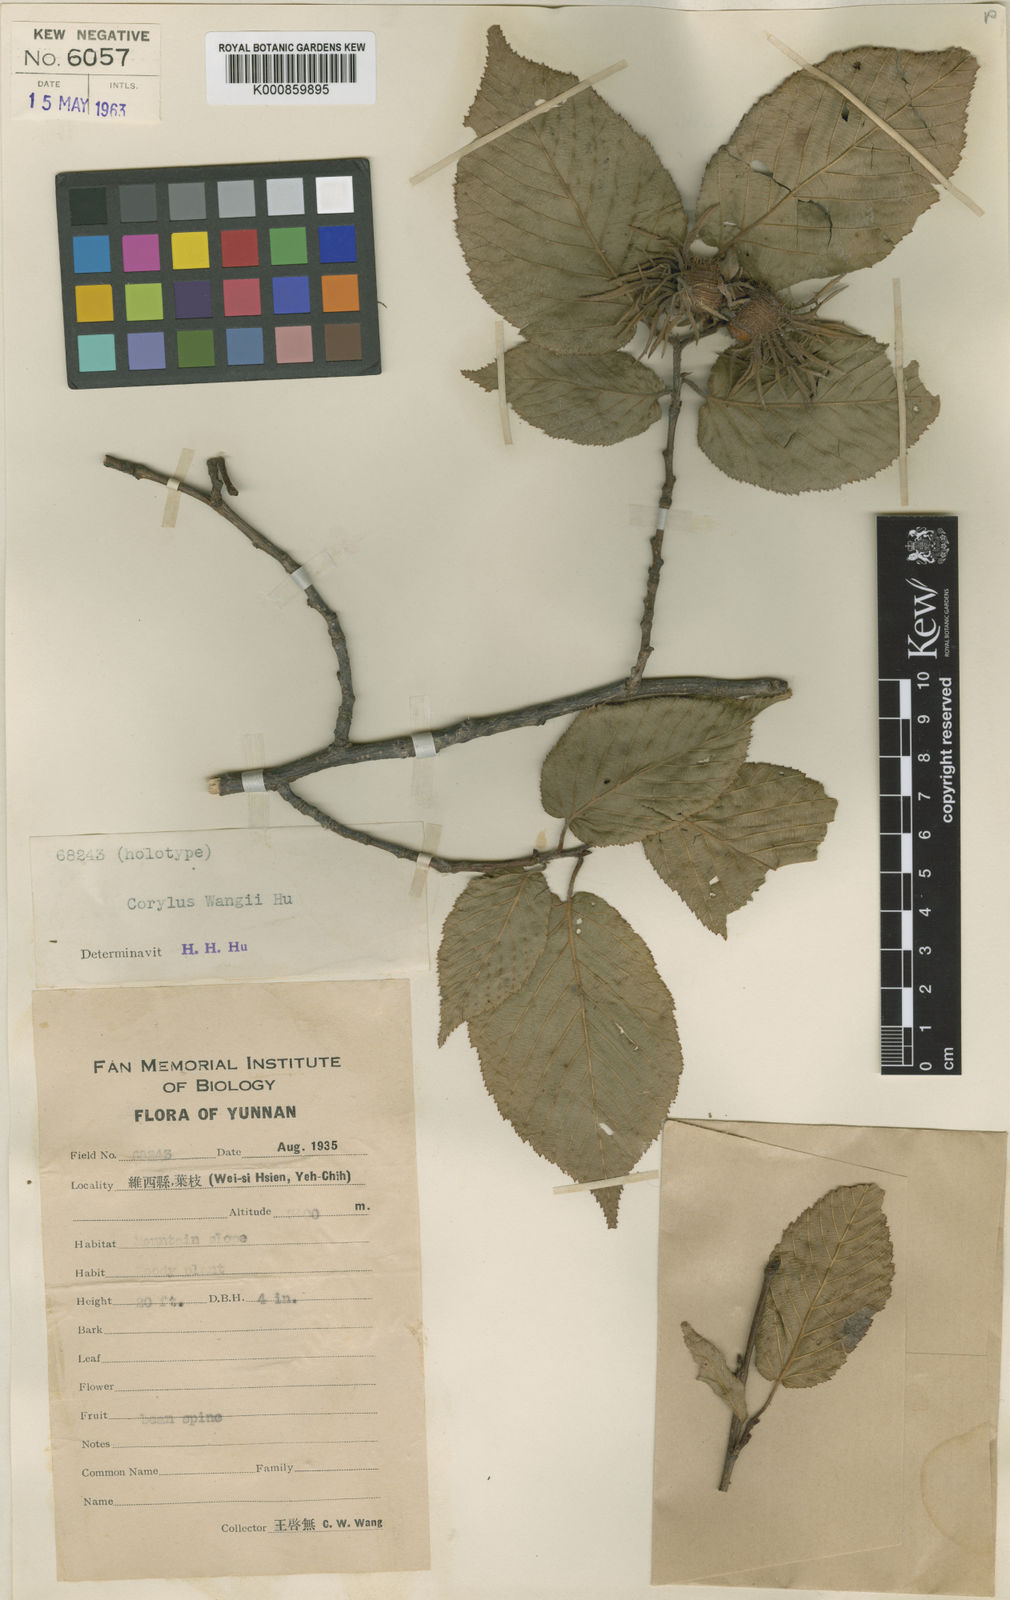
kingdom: Plantae
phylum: Tracheophyta
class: Magnoliopsida
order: Fagales
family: Betulaceae
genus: Corylus
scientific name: Corylus wangii
